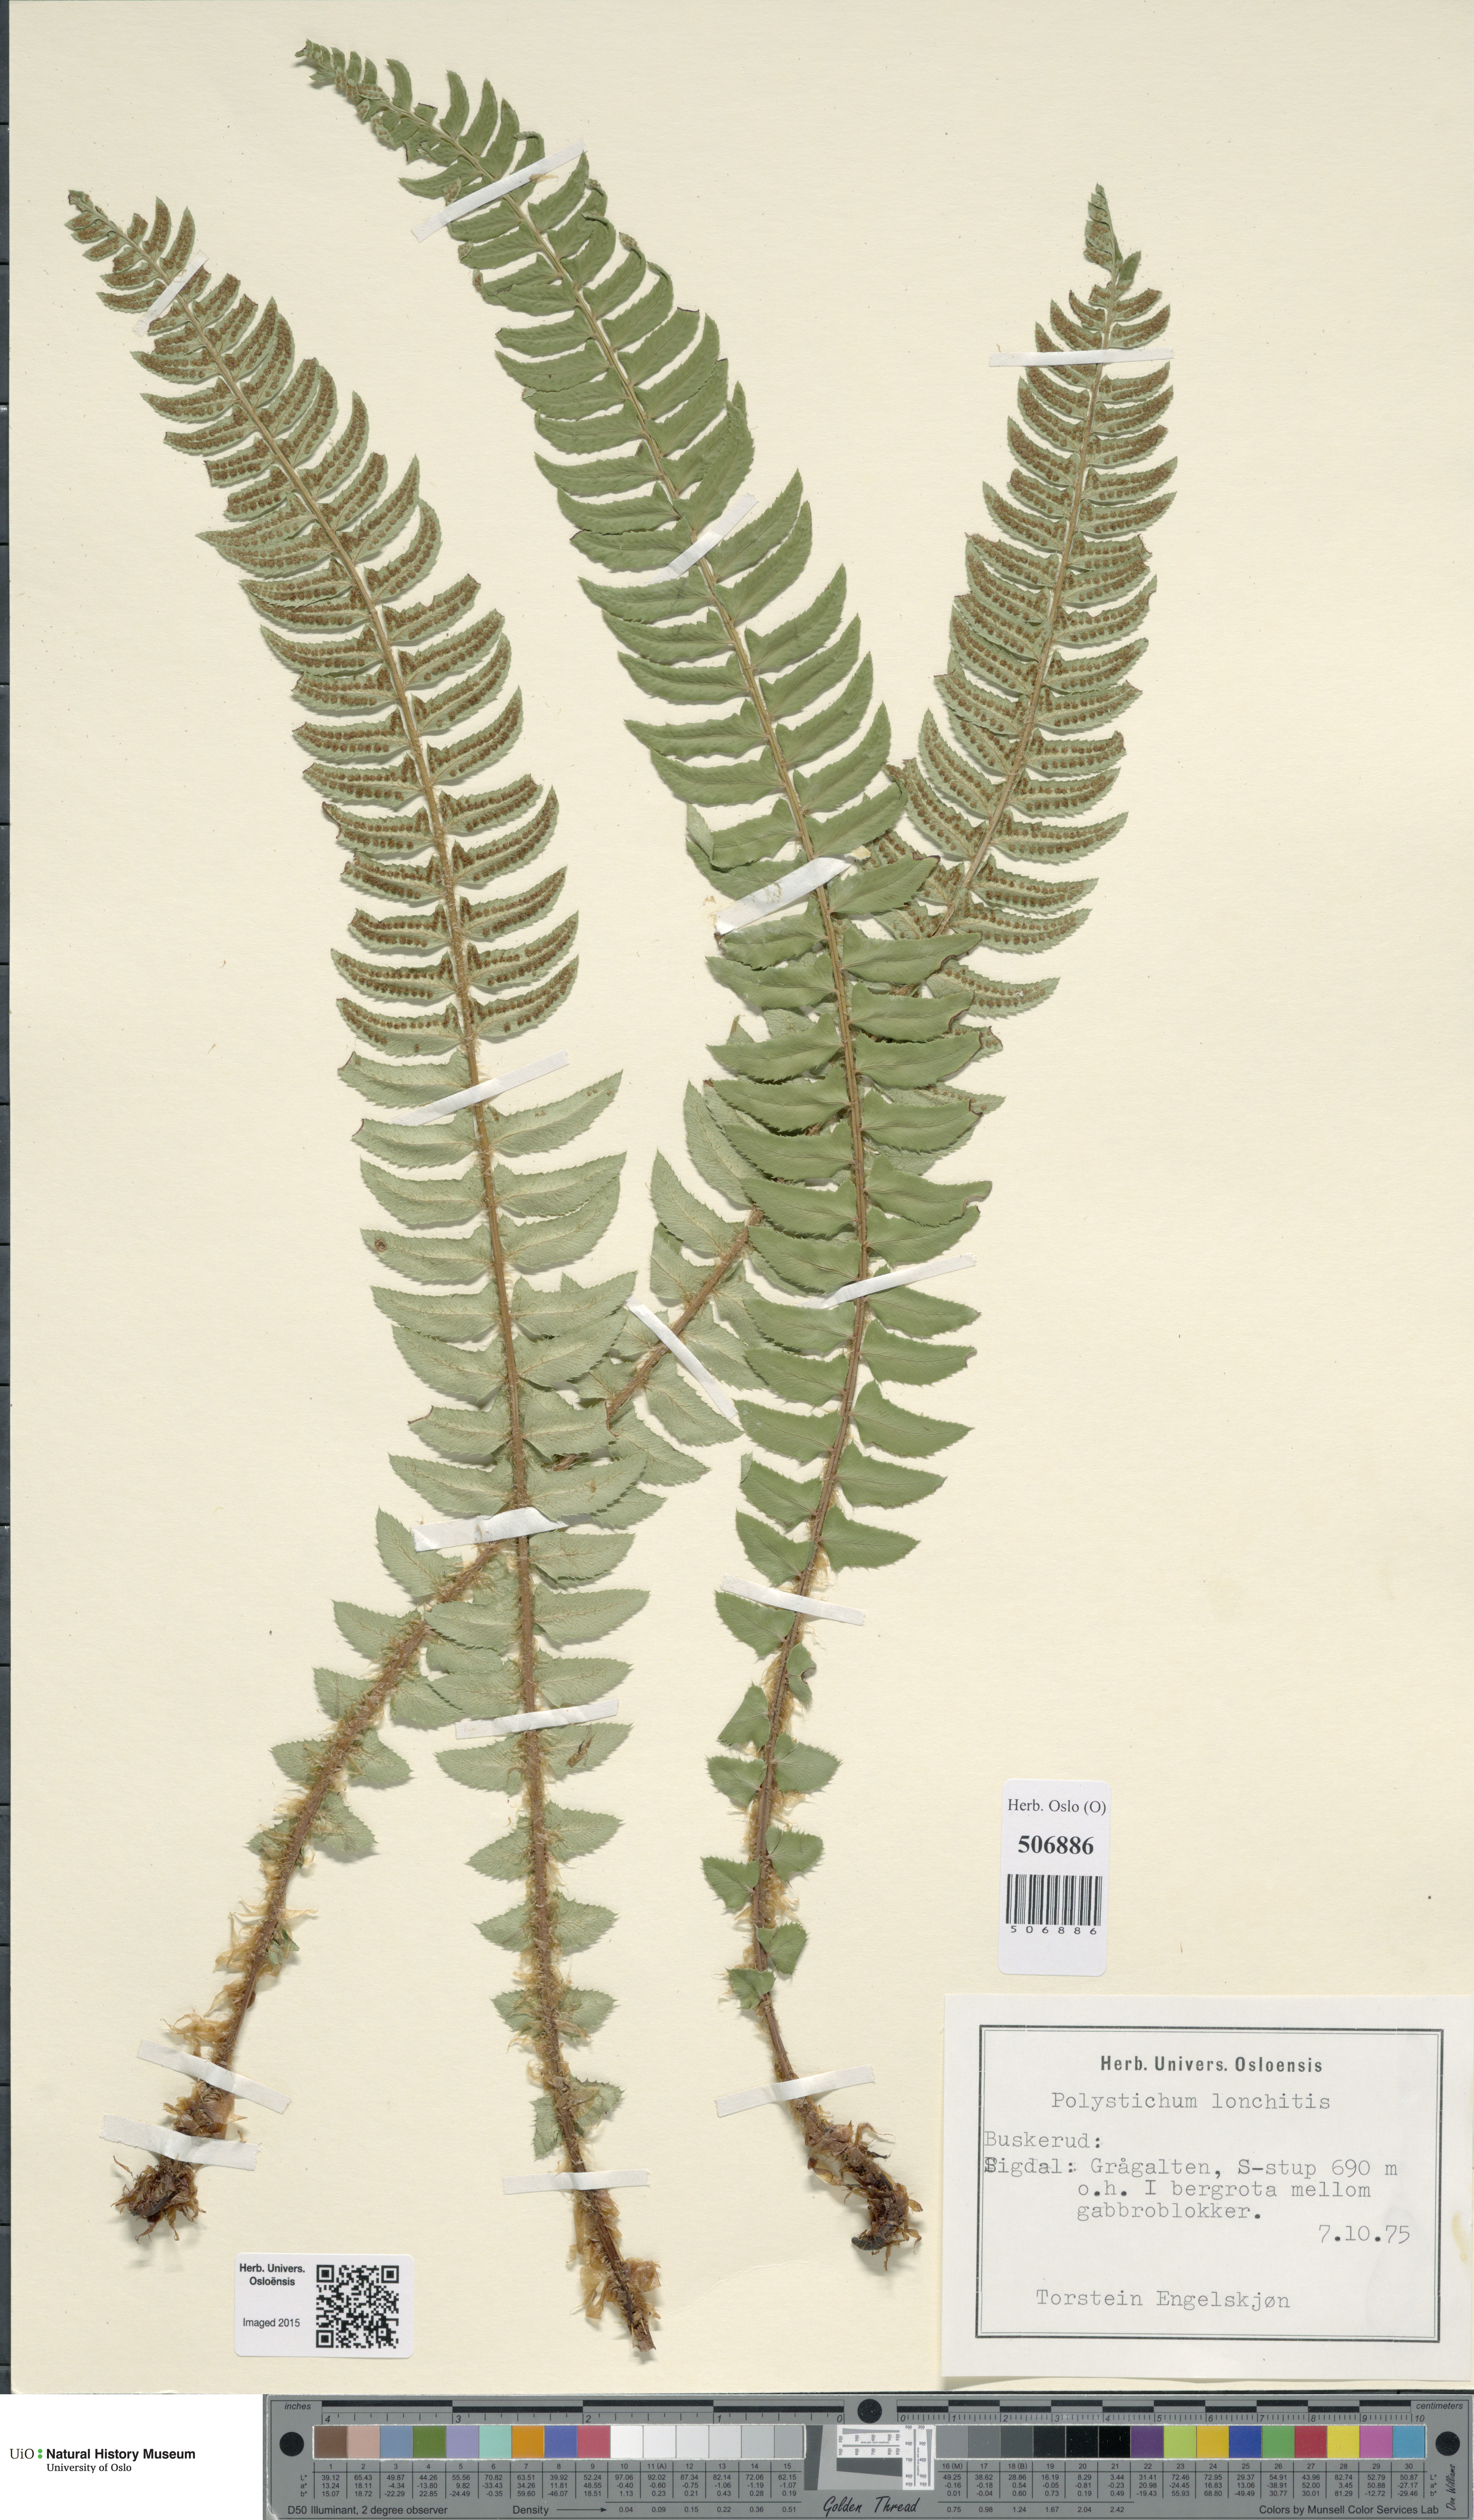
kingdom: Plantae
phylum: Tracheophyta
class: Polypodiopsida
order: Polypodiales
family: Dryopteridaceae
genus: Polystichum
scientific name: Polystichum lonchitis
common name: Holly fern
